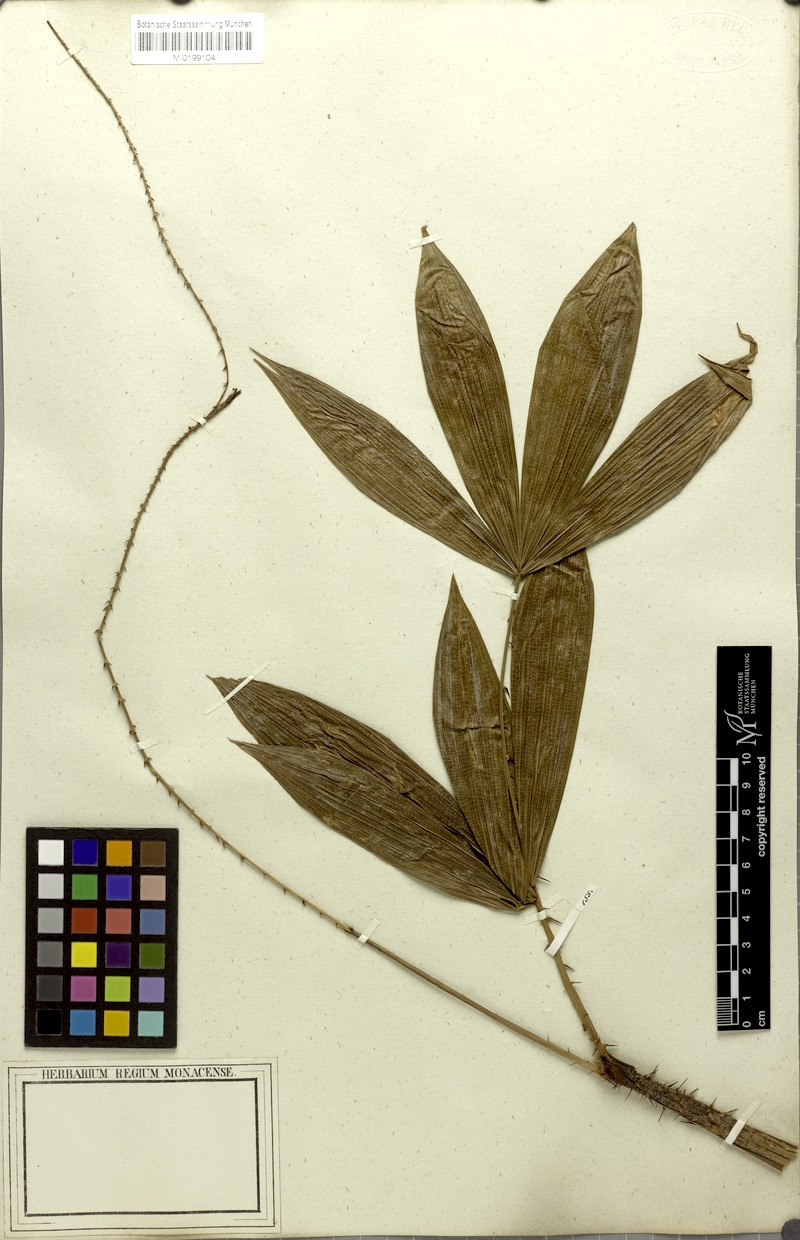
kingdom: Plantae
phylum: Tracheophyta
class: Liliopsida
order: Arecales
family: Arecaceae
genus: Calamus
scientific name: Calamus floribundus
